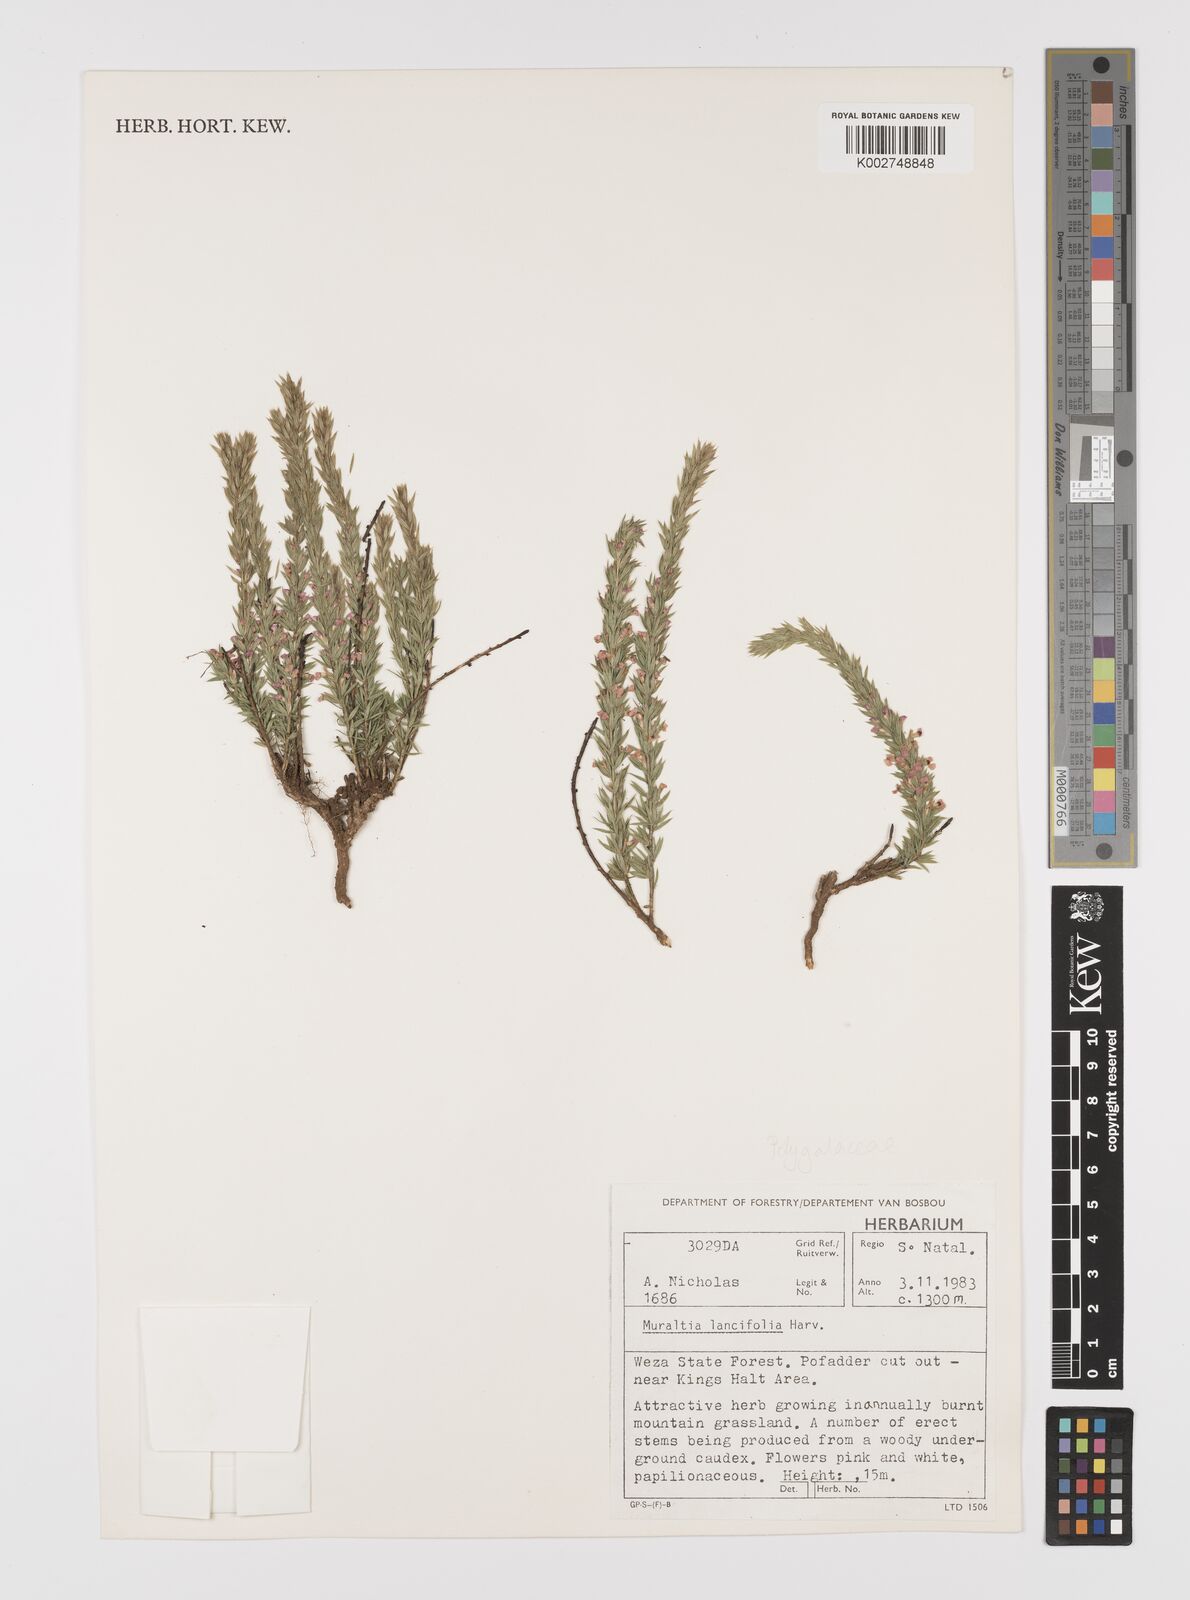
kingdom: Plantae
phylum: Tracheophyta
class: Magnoliopsida
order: Fabales
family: Polygalaceae
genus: Muraltia
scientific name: Muraltia lancifolia
